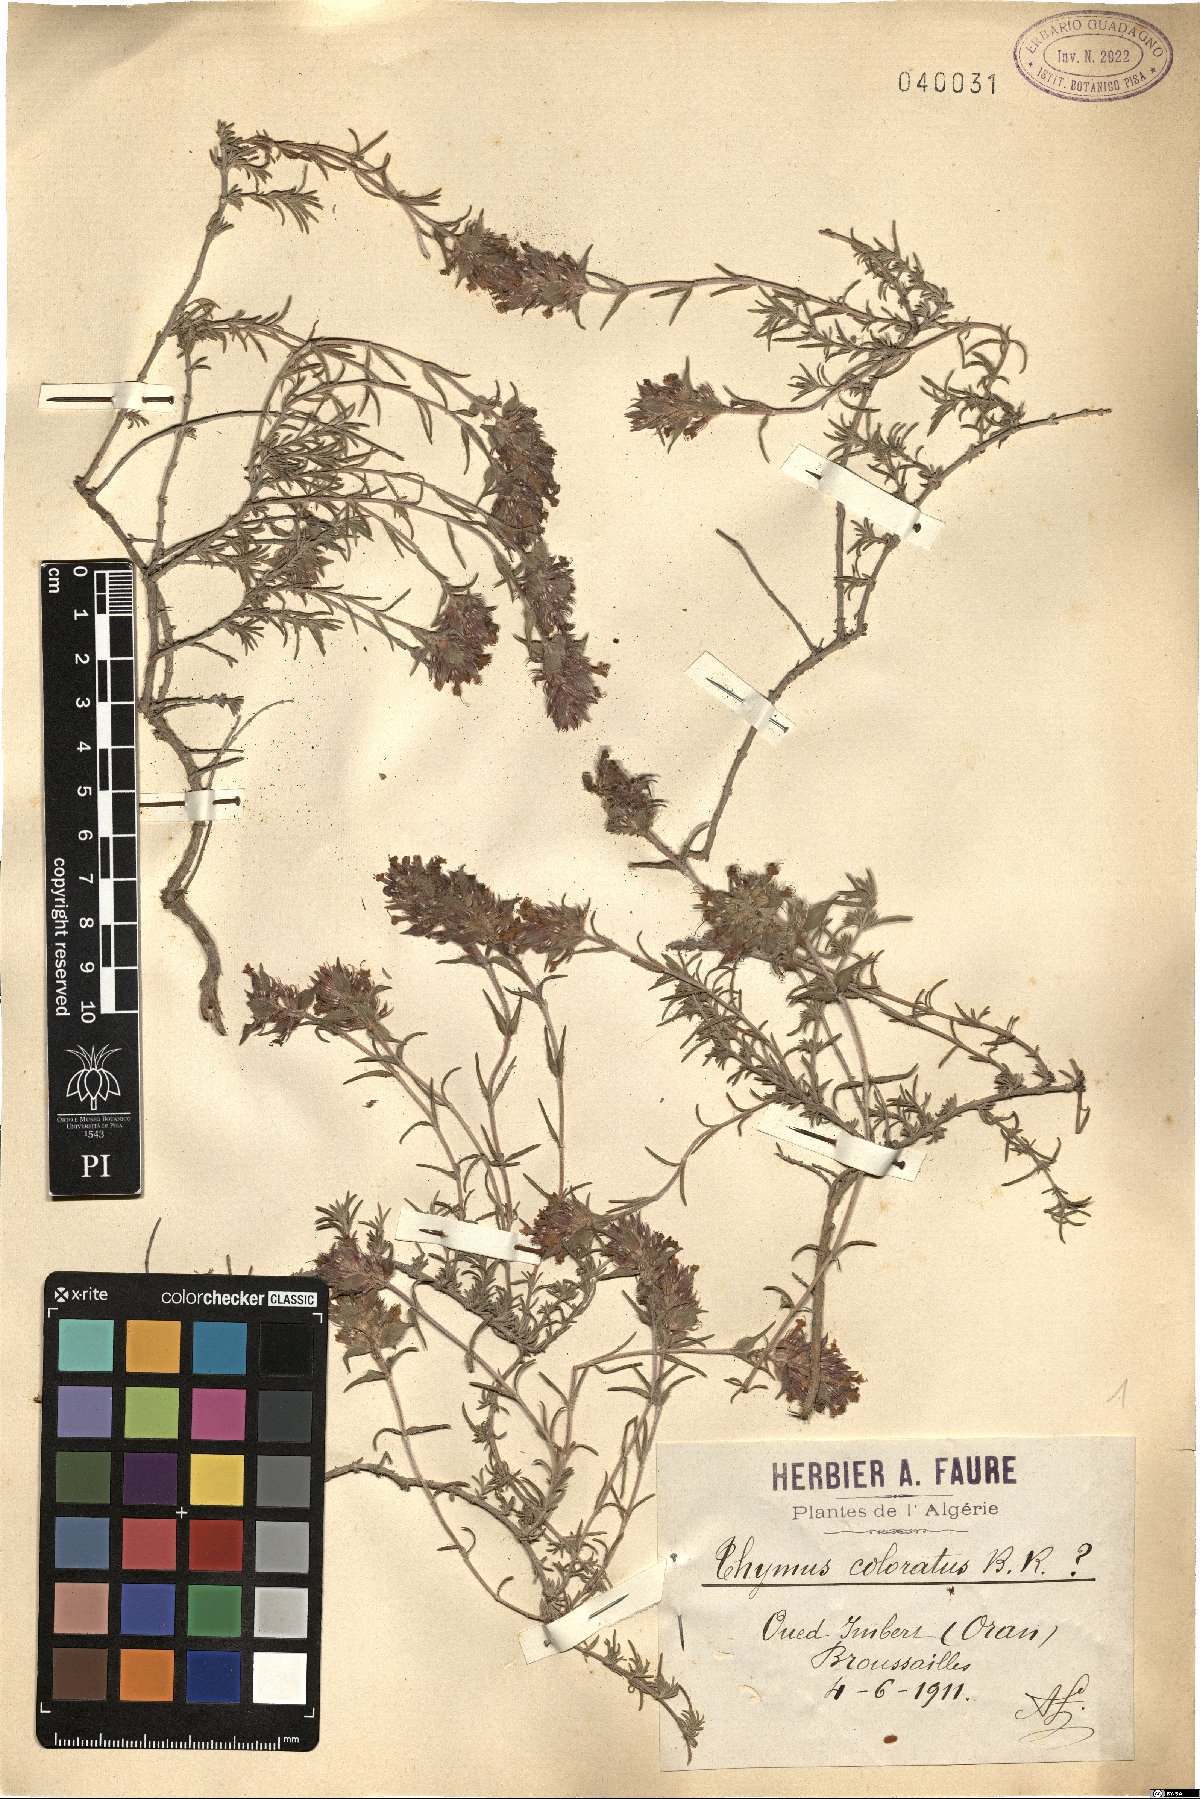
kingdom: Plantae
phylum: Tracheophyta
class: Magnoliopsida
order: Lamiales
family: Lamiaceae
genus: Thymus
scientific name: Thymus munbyanus
